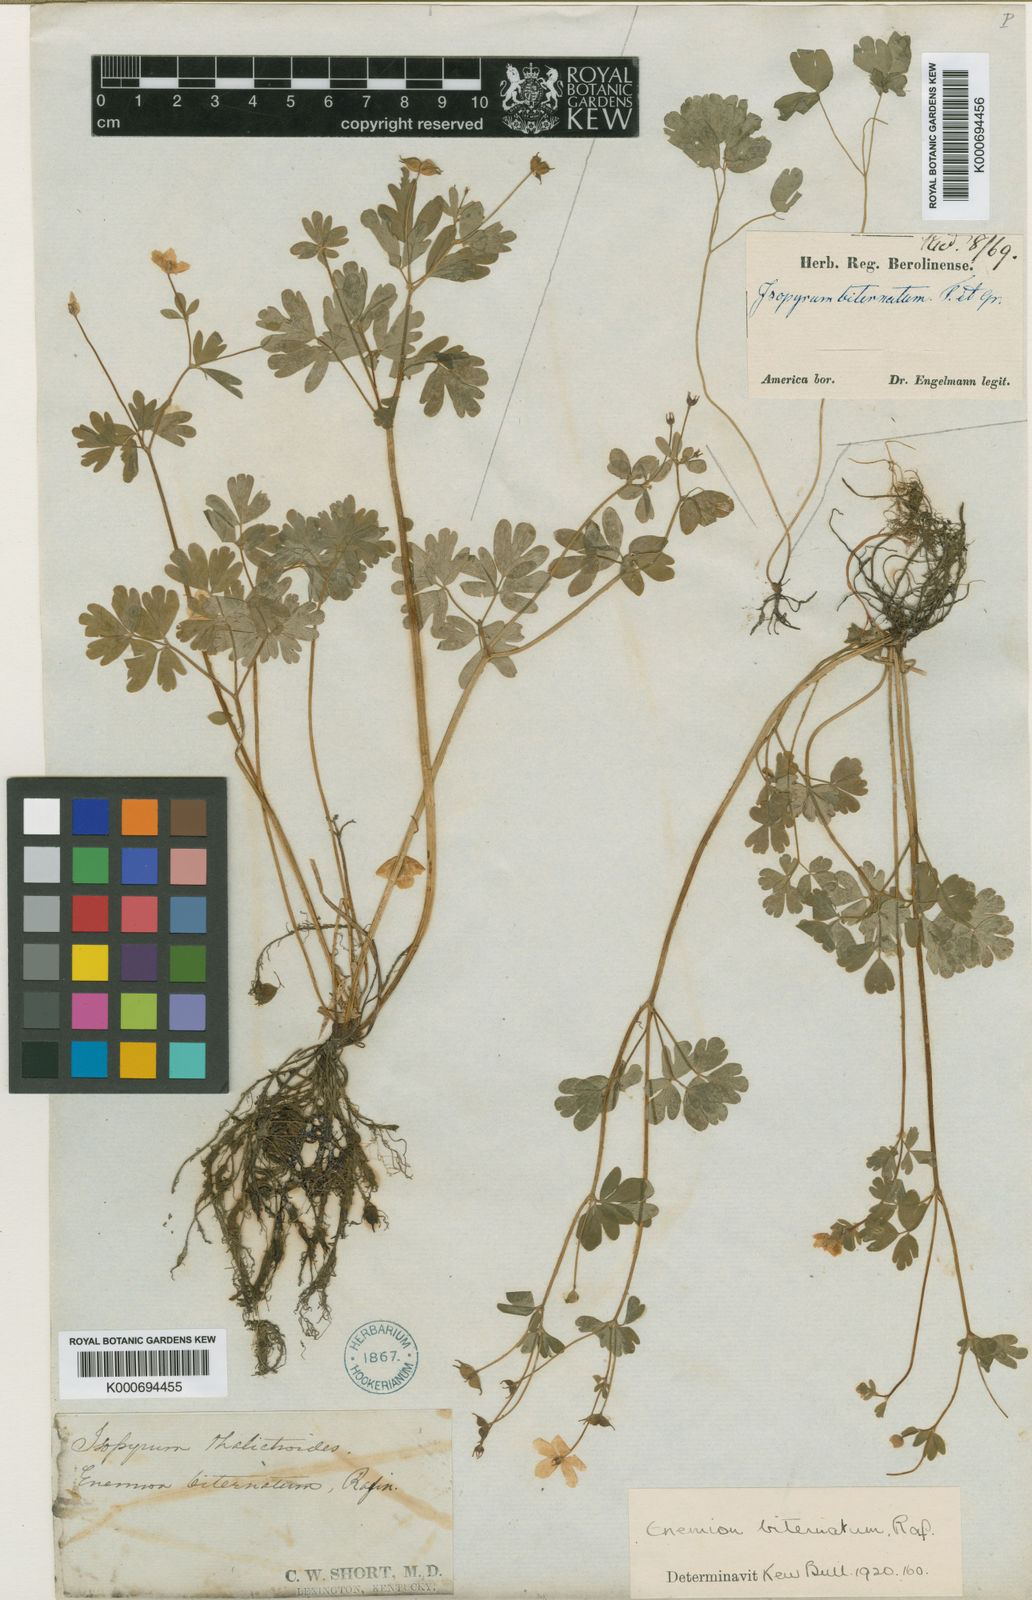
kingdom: Plantae
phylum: Tracheophyta
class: Magnoliopsida
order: Ranunculales
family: Ranunculaceae
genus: Enemion
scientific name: Enemion biternatum
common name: Eastern false rue-anemone
